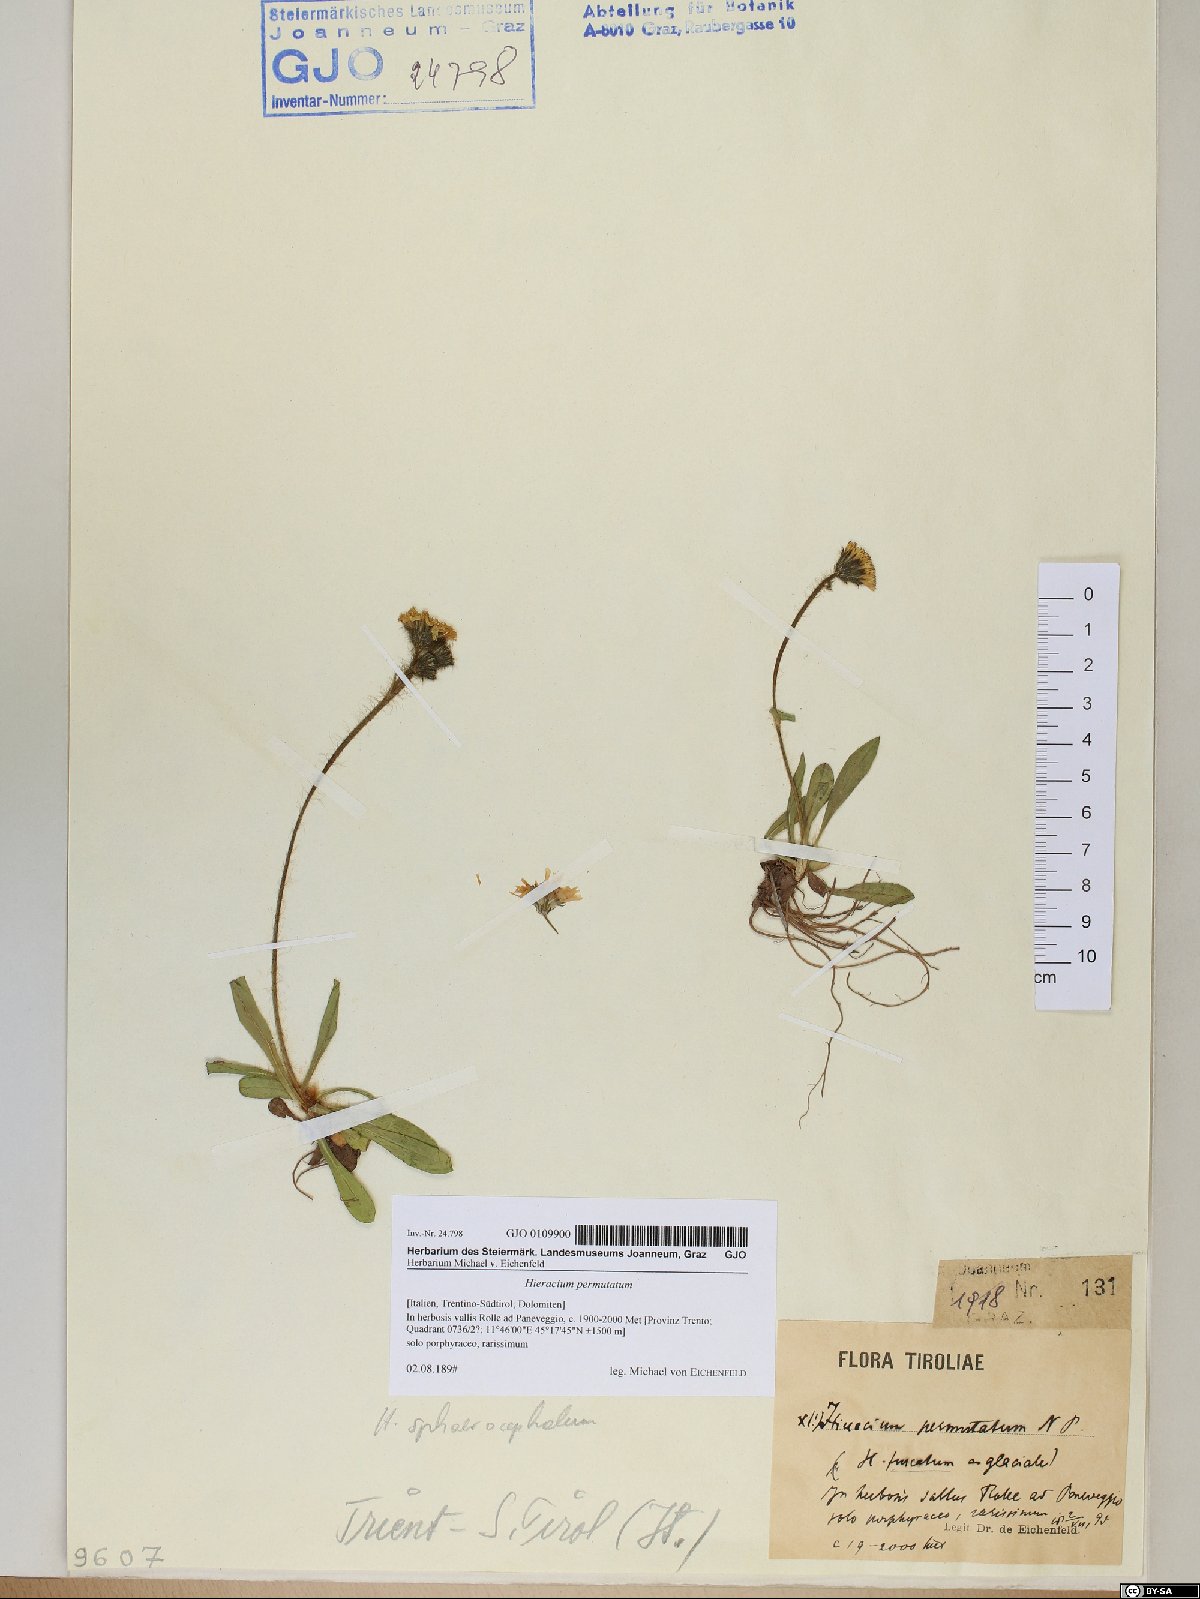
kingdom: Plantae
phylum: Tracheophyta
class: Magnoliopsida
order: Asterales
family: Asteraceae
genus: Pilosella
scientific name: Pilosella permutata
